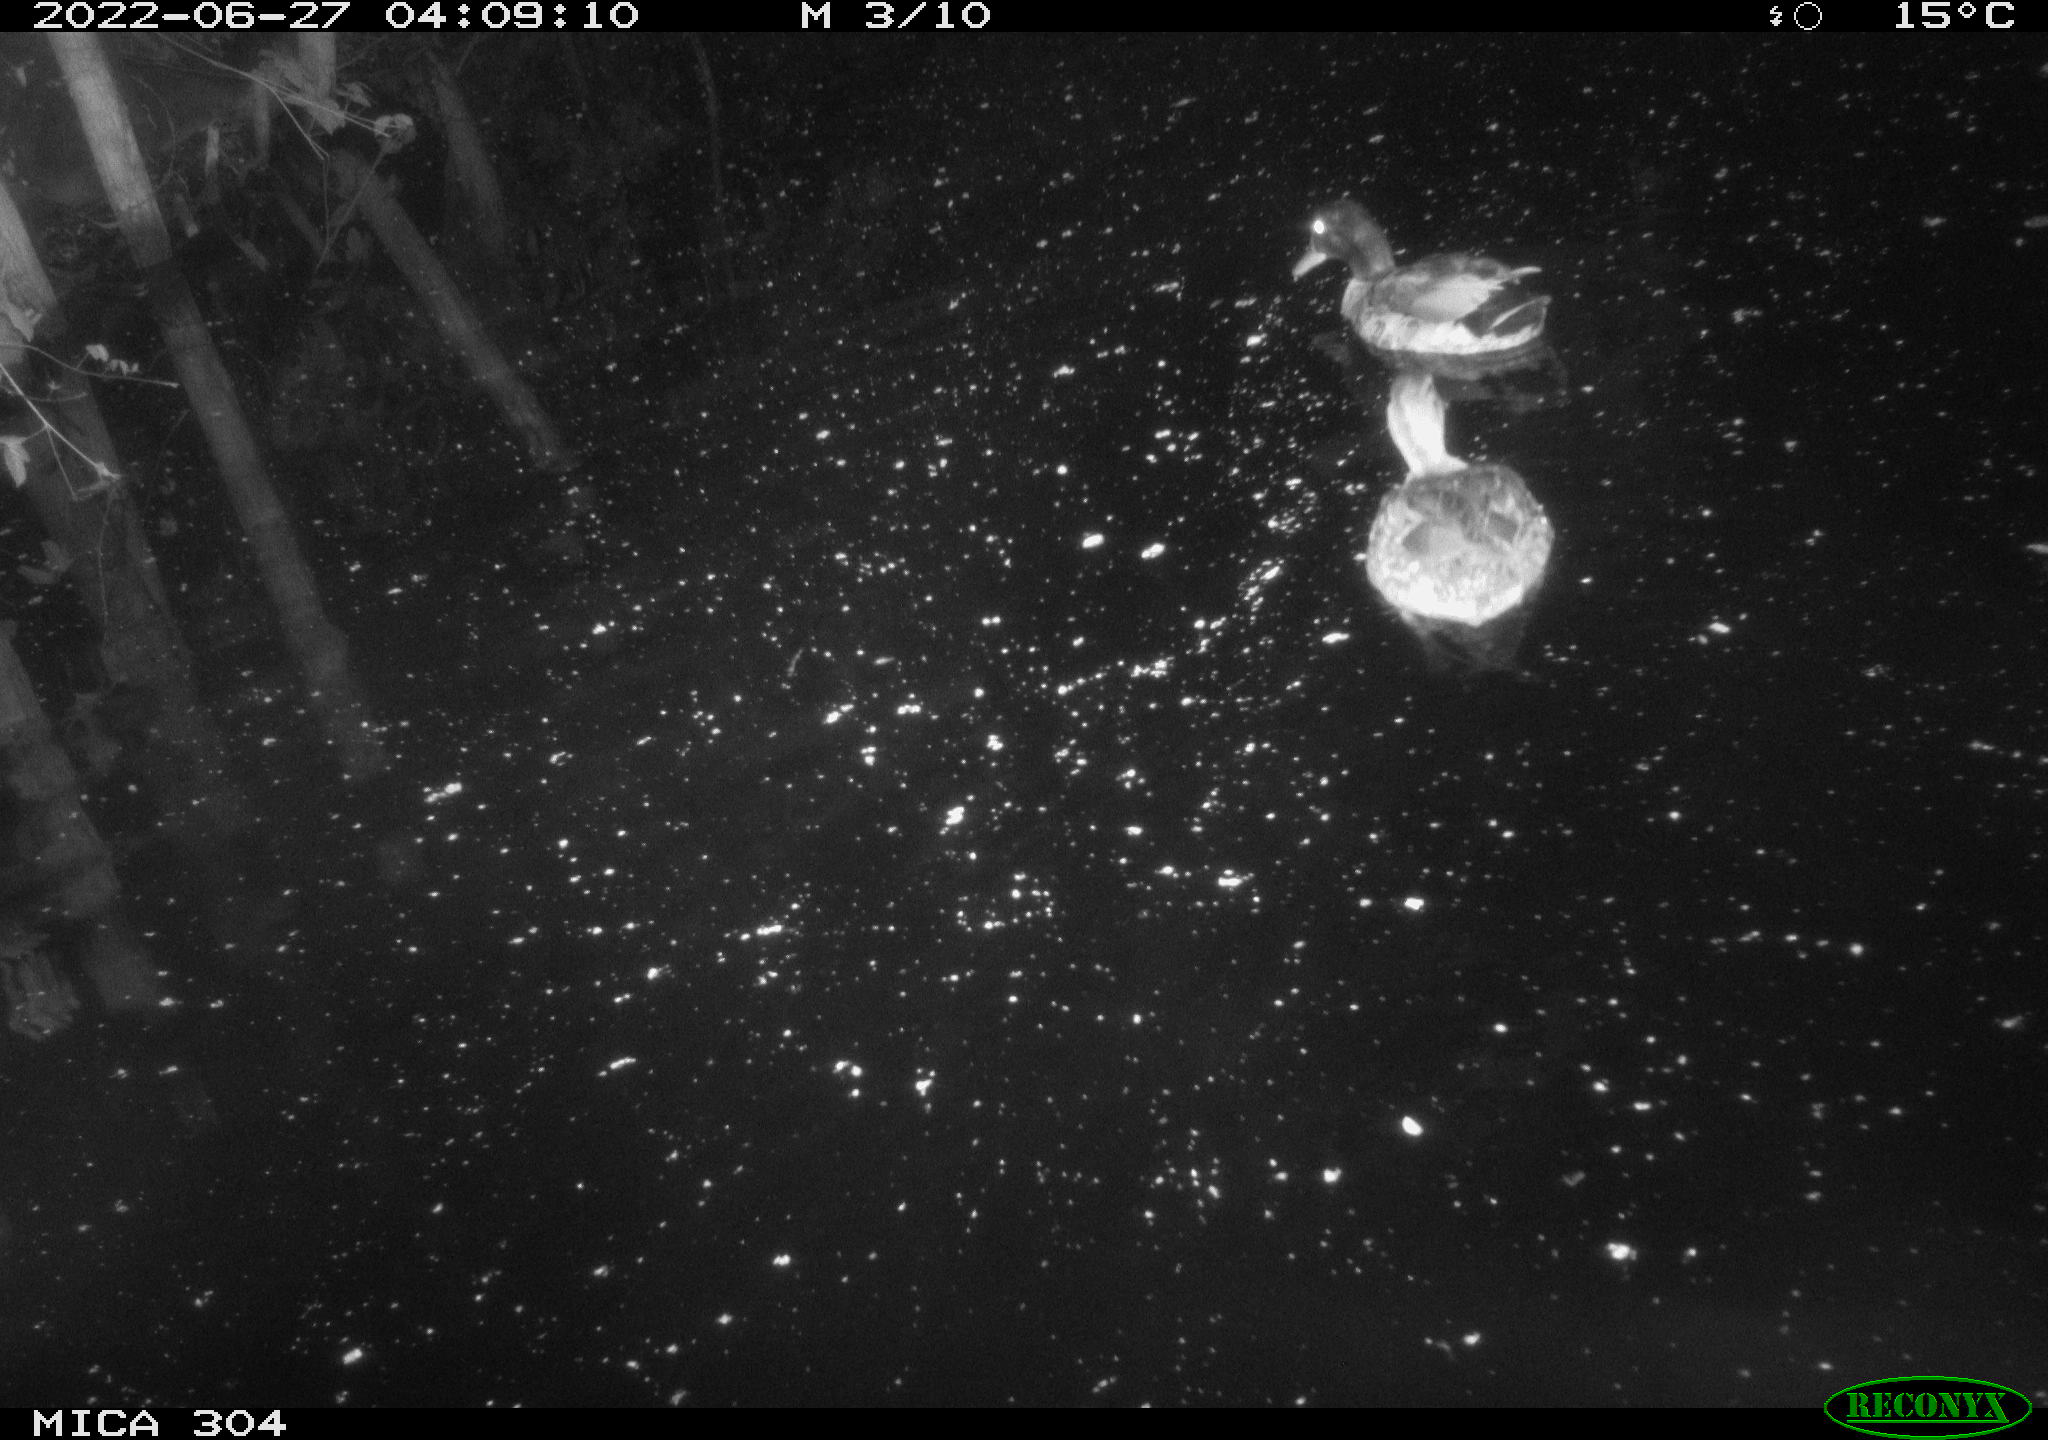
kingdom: Animalia
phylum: Chordata
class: Aves
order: Anseriformes
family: Anatidae
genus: Mareca
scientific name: Mareca strepera
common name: Gadwall
